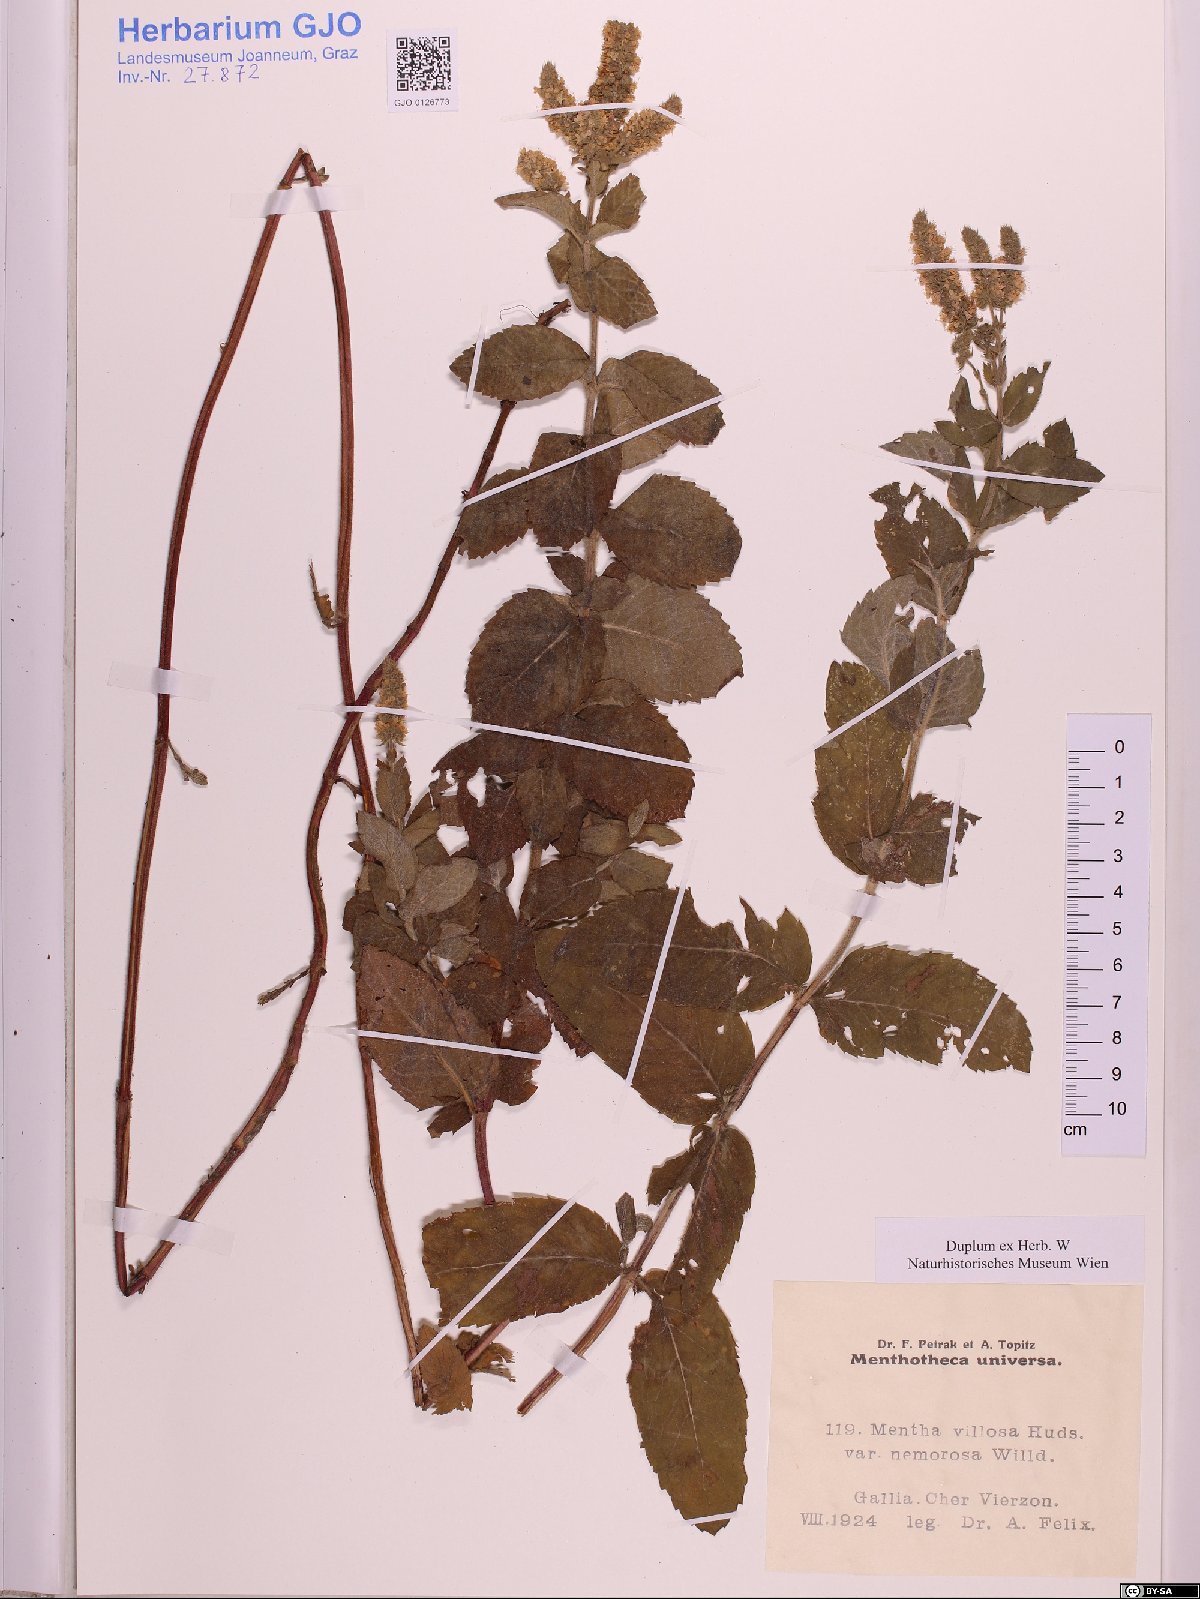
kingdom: Plantae
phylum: Tracheophyta
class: Magnoliopsida
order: Lamiales
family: Lamiaceae
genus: Mentha
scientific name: Mentha villosa
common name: Apple mint
